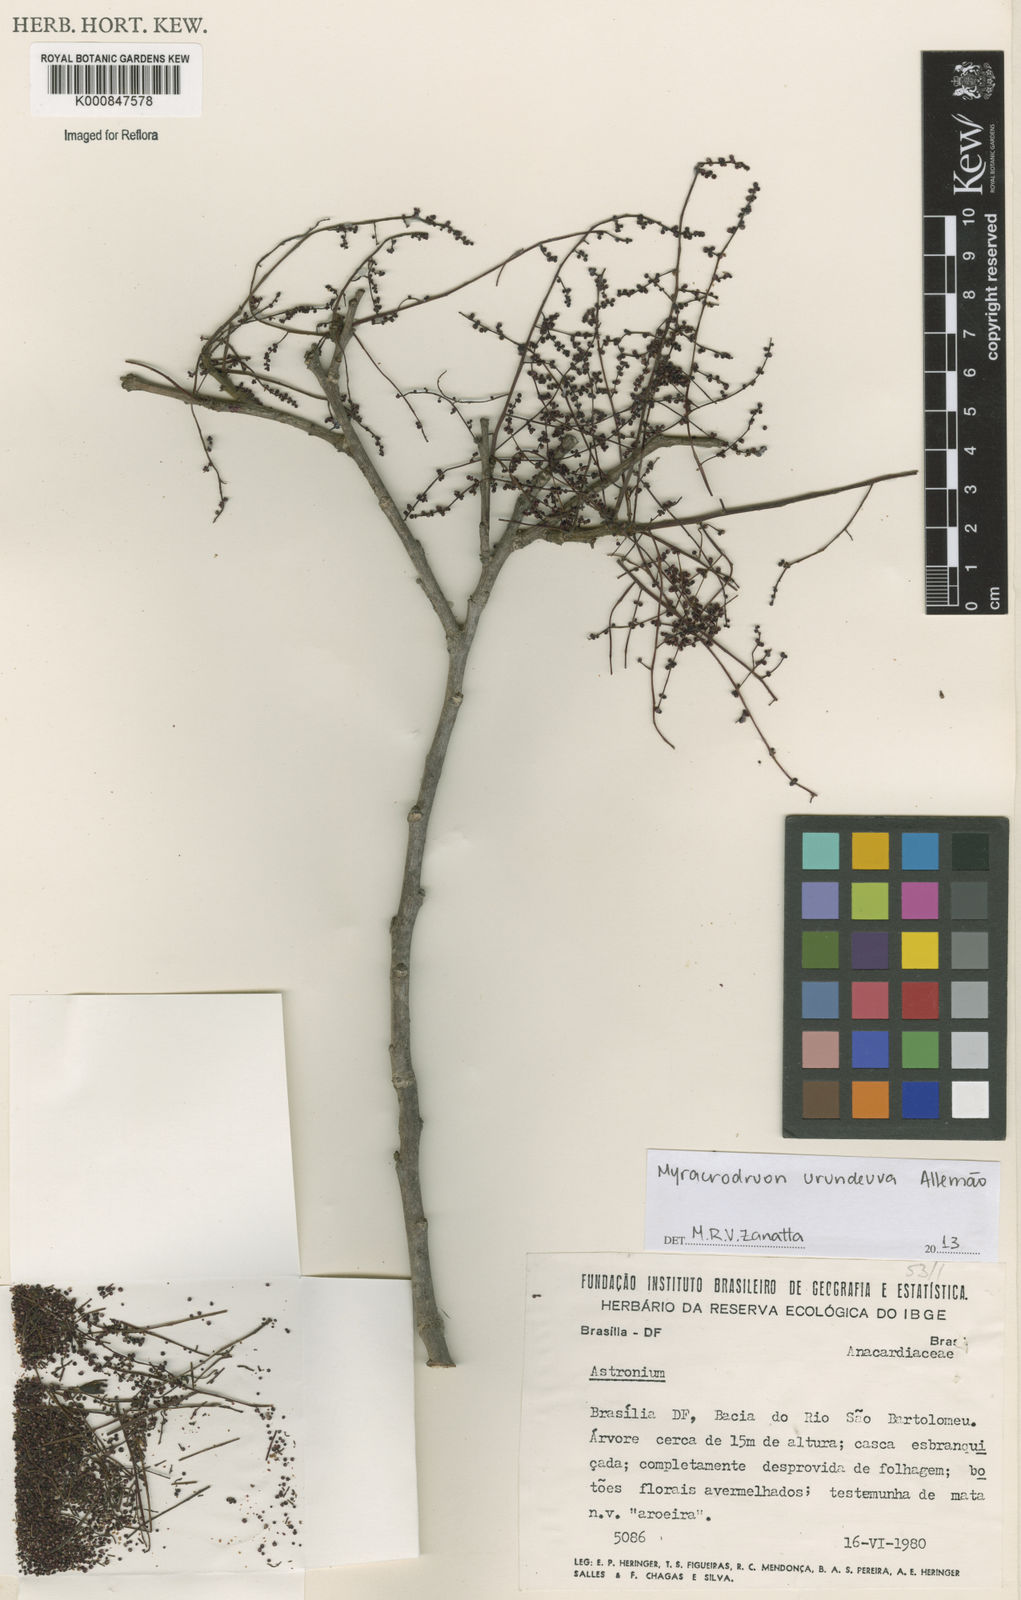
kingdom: Plantae
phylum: Tracheophyta
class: Magnoliopsida
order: Sapindales
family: Anacardiaceae
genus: Astronium
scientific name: Astronium
